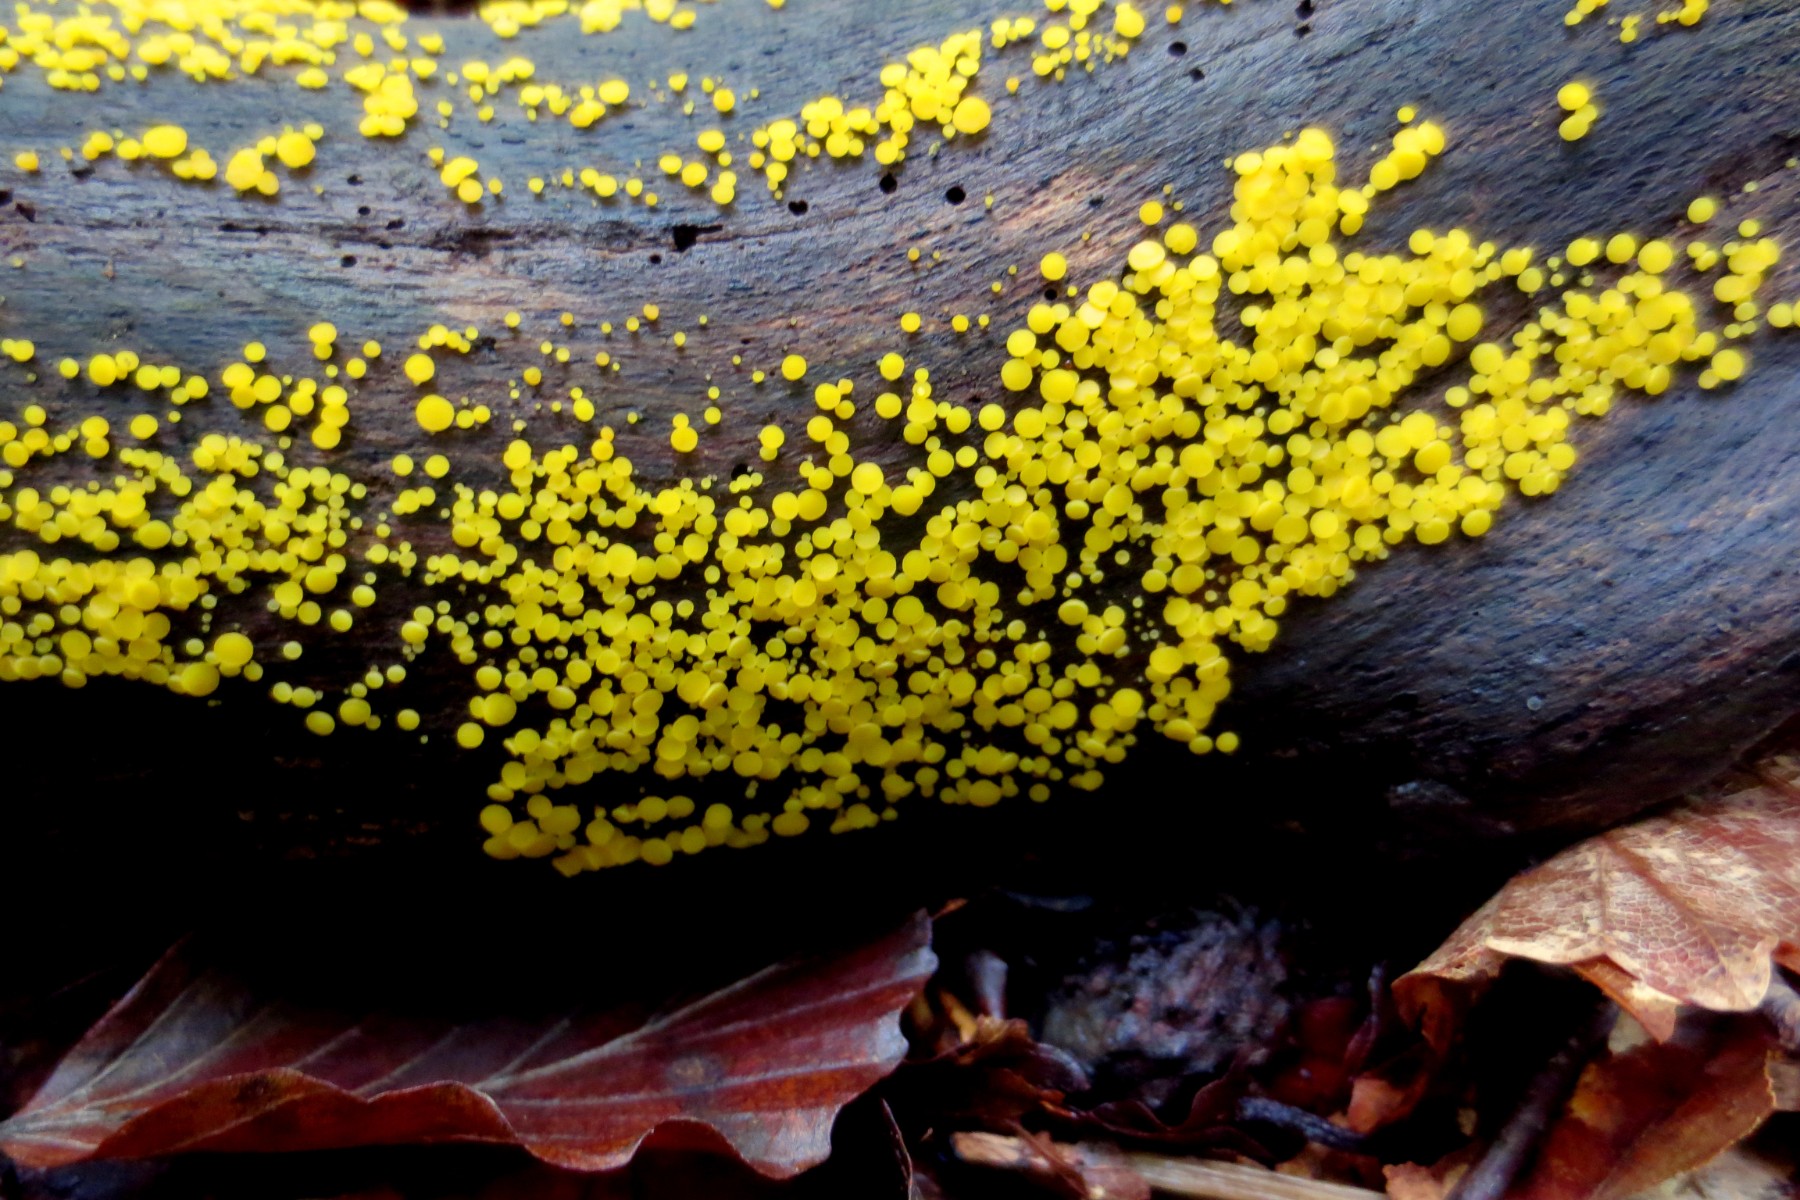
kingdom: Fungi
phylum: Ascomycota
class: Leotiomycetes
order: Helotiales
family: Pezizellaceae
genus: Calycina
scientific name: Calycina citrina
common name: almindelig gulskive
